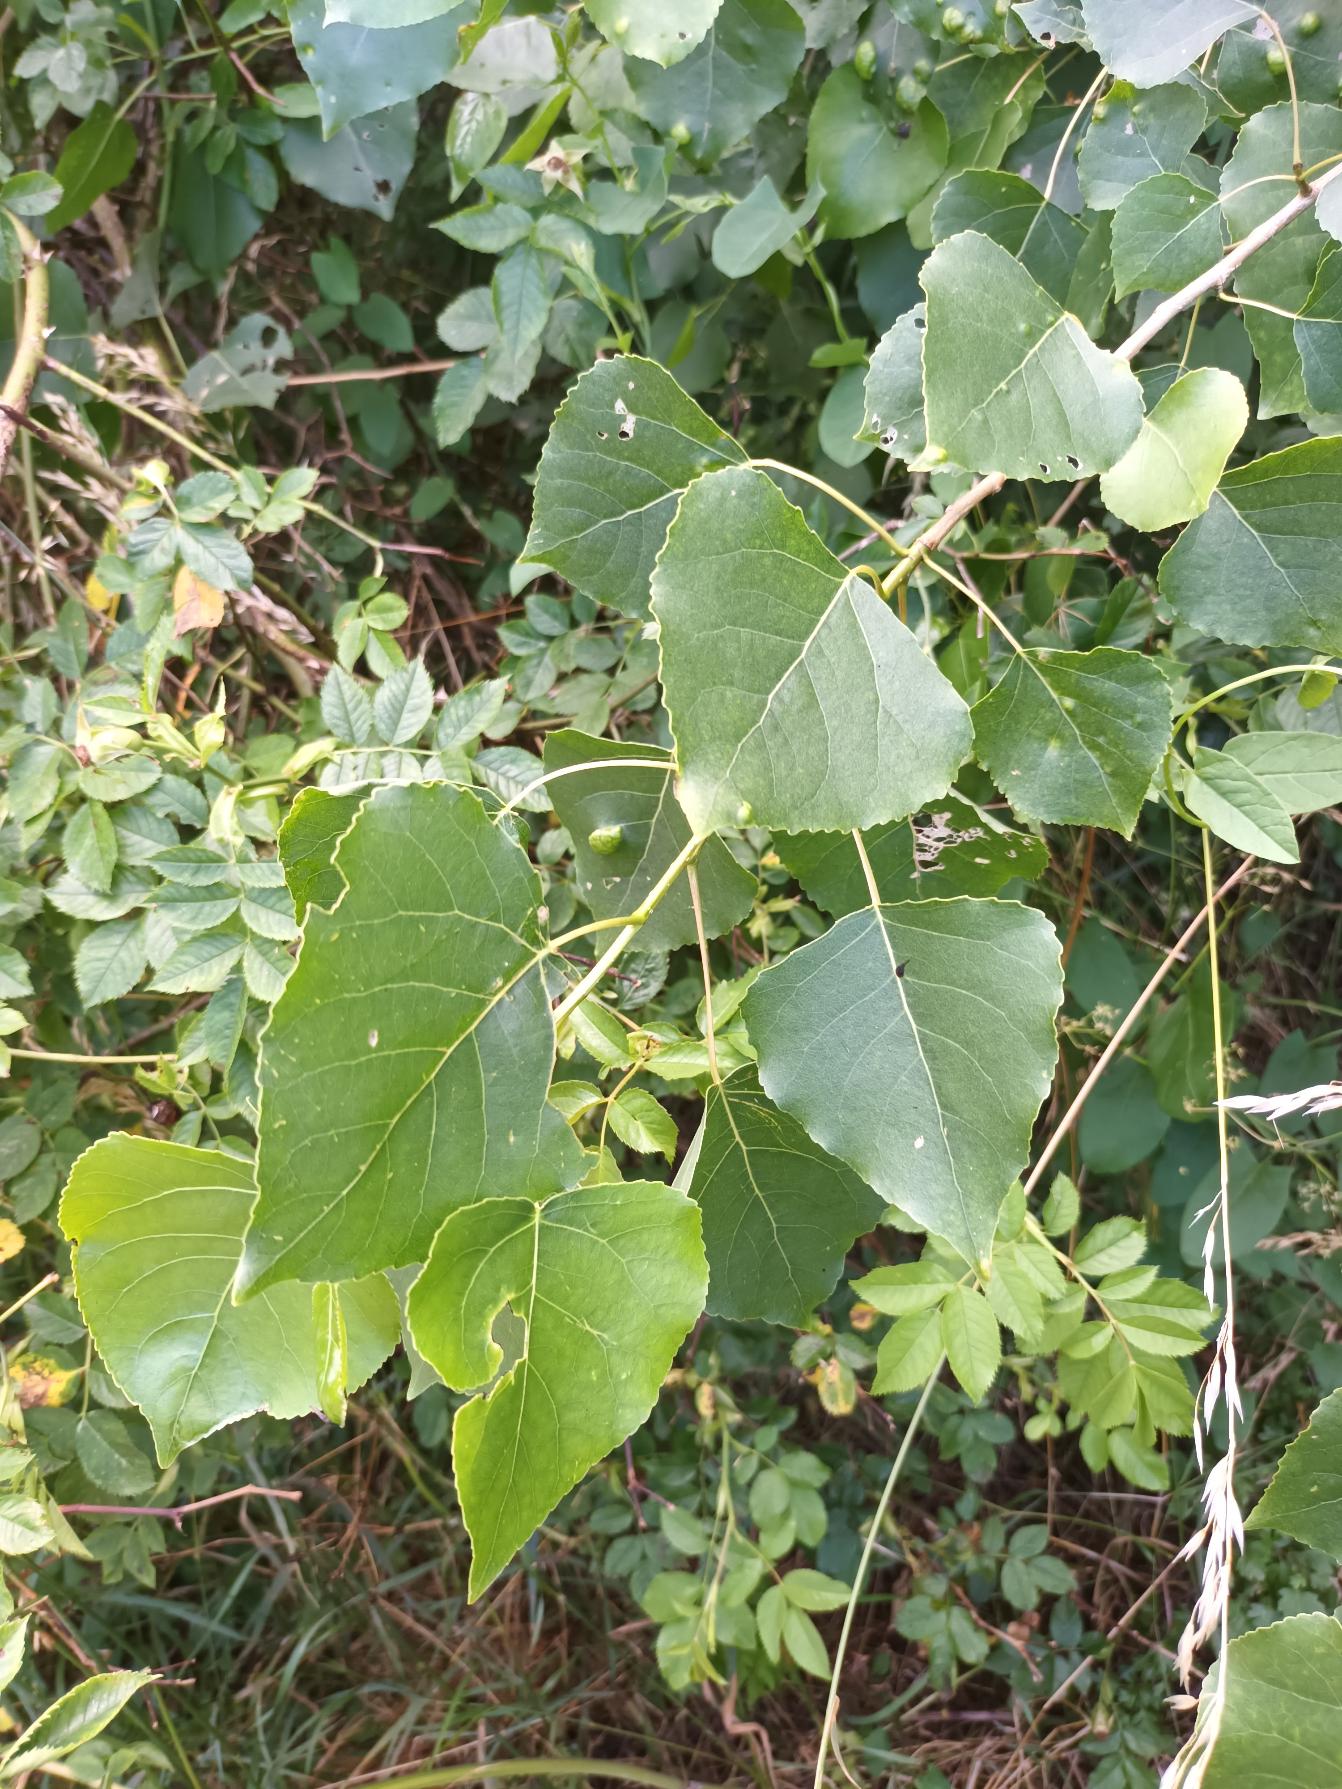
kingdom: Plantae
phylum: Tracheophyta
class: Magnoliopsida
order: Malpighiales
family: Salicaceae
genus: Populus
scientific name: Populus nigra
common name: Sort-poppel
